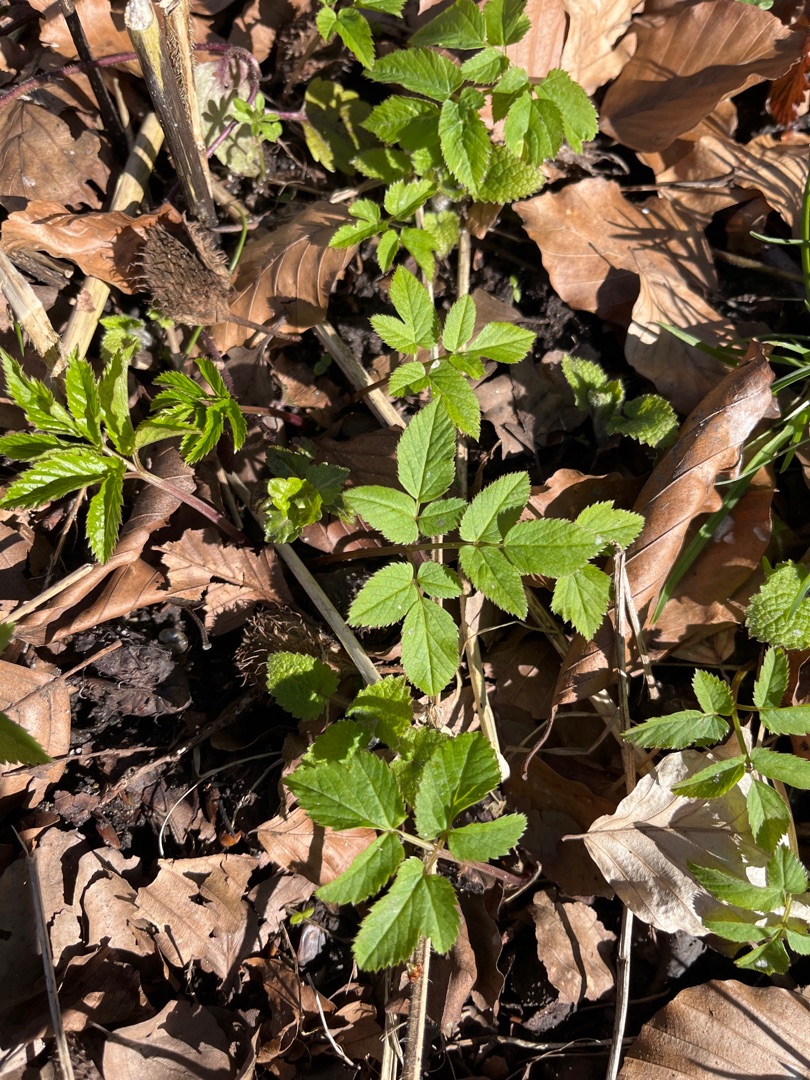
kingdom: Plantae
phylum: Tracheophyta
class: Magnoliopsida
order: Apiales
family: Apiaceae
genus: Aegopodium
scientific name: Aegopodium podagraria
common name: Skvalderkål
